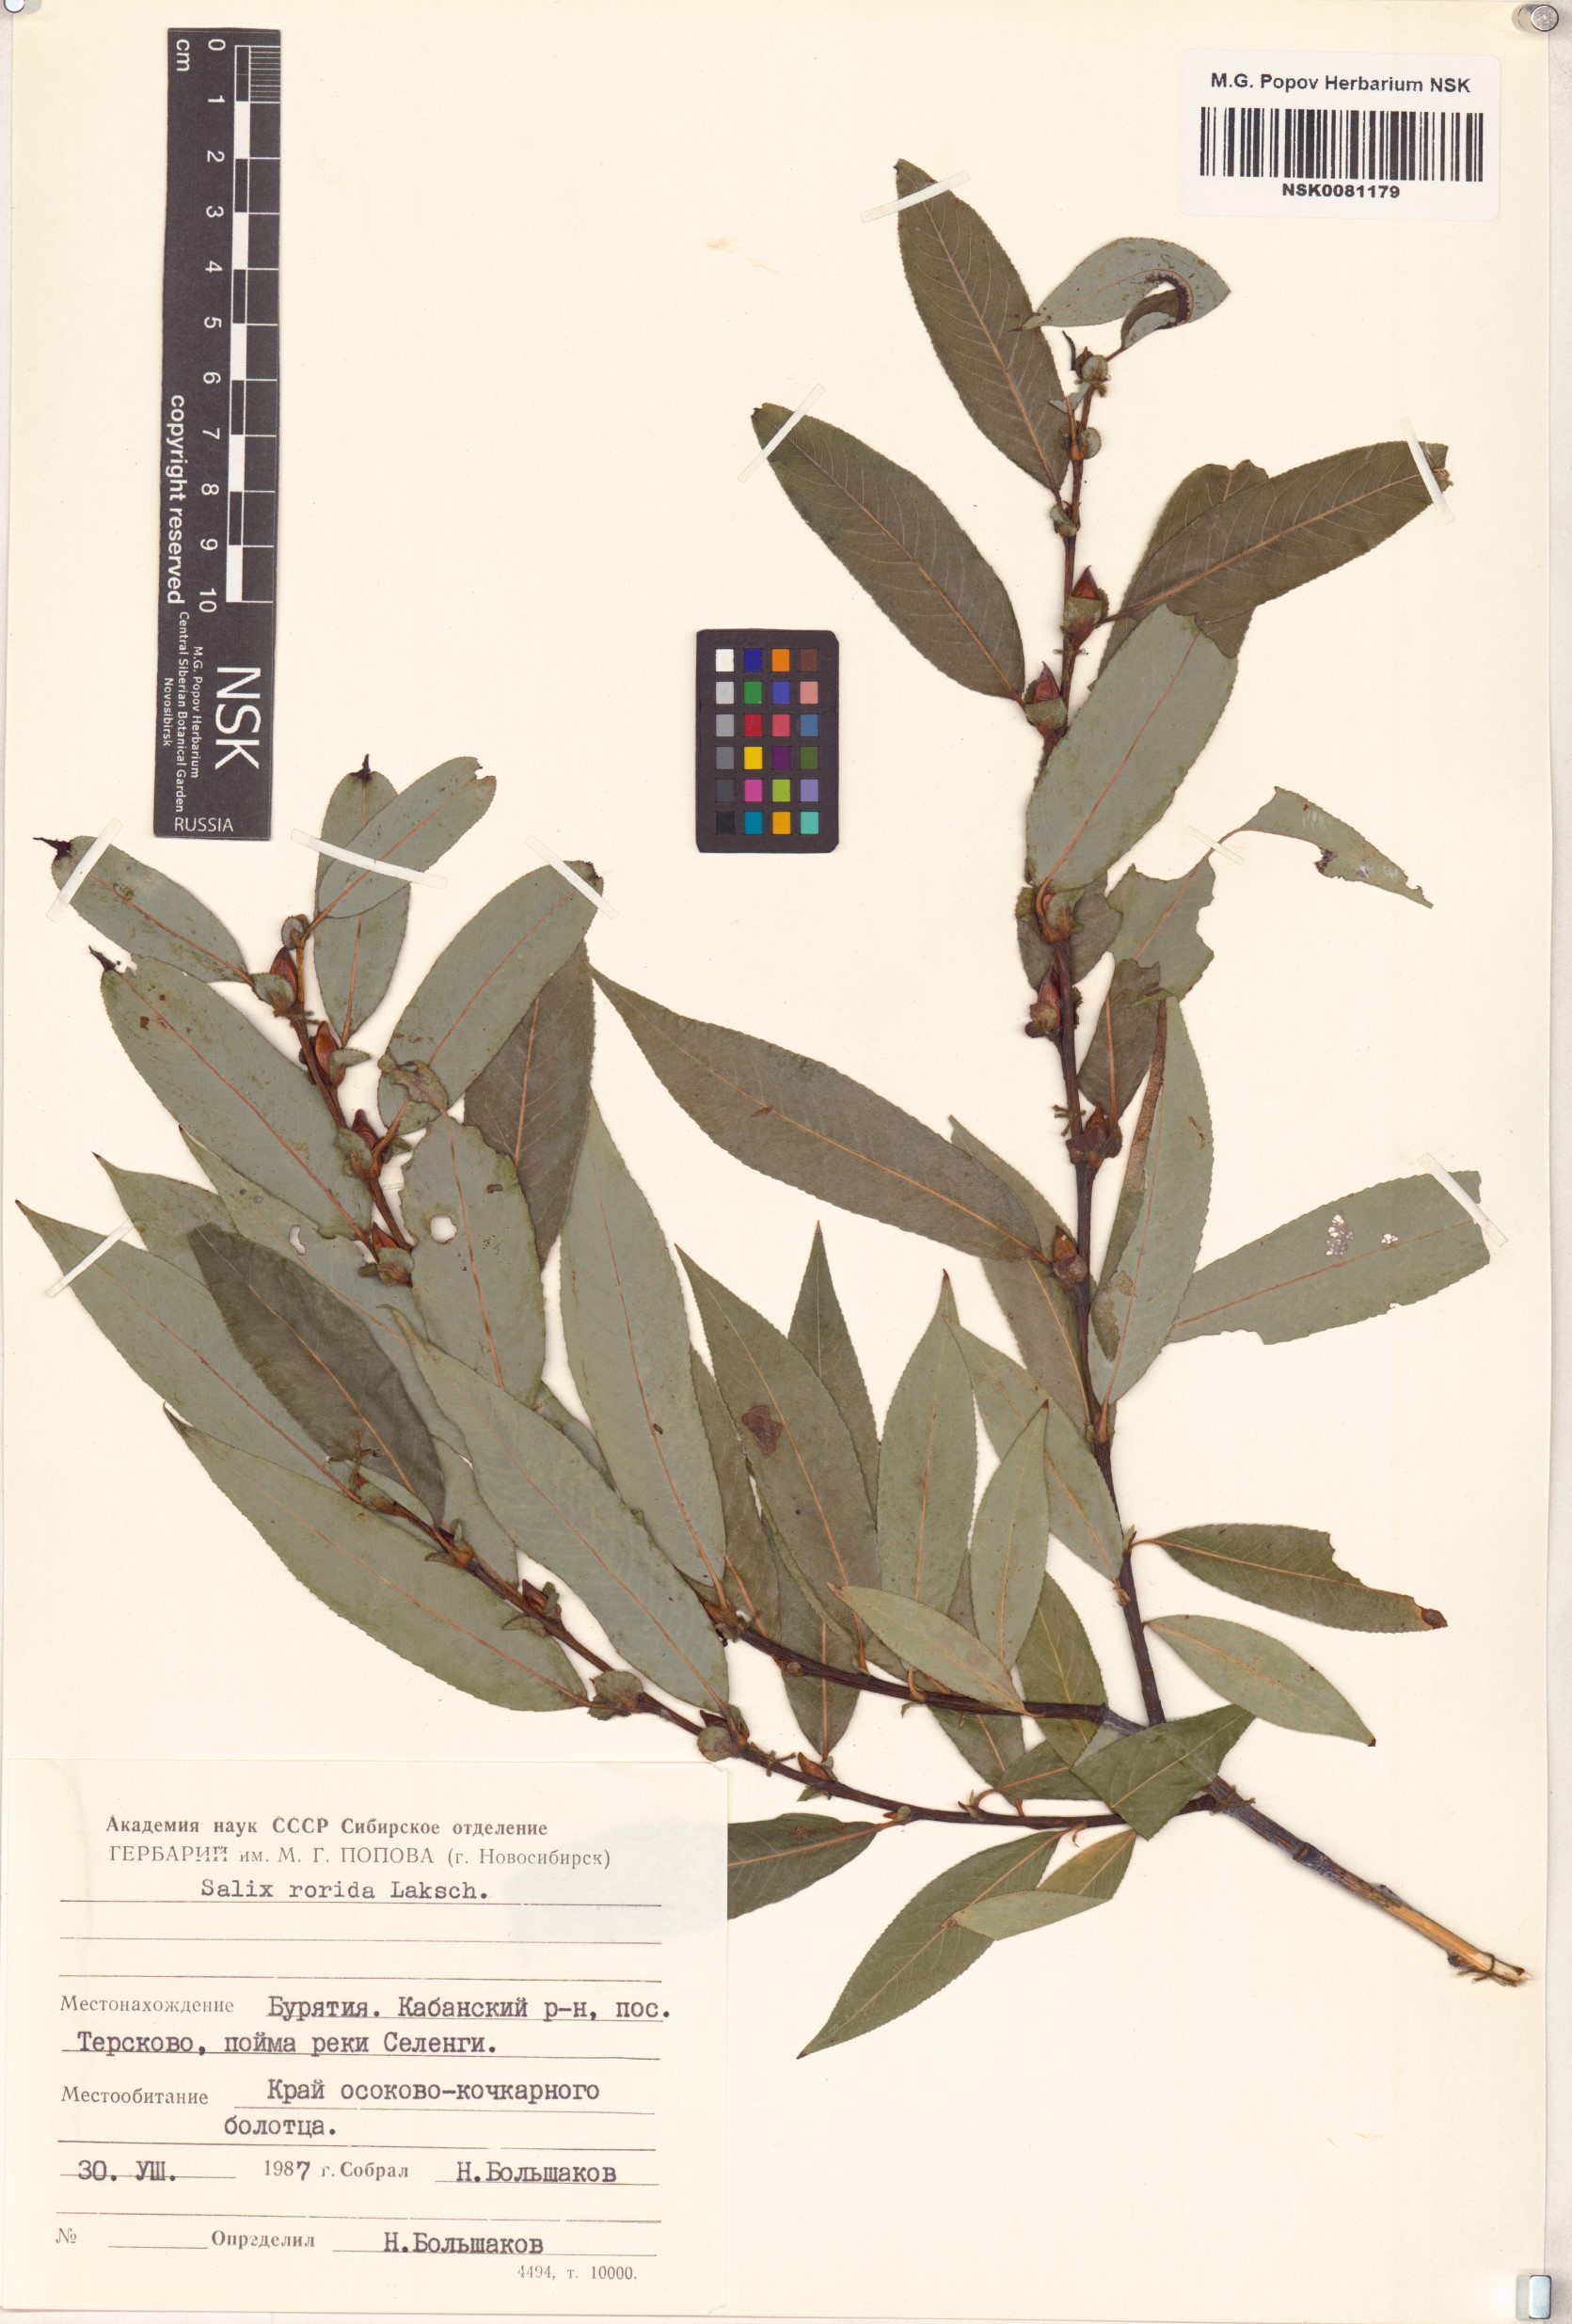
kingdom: Plantae
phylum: Tracheophyta
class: Magnoliopsida
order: Malpighiales
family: Salicaceae
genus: Salix
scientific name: Salix rorida
